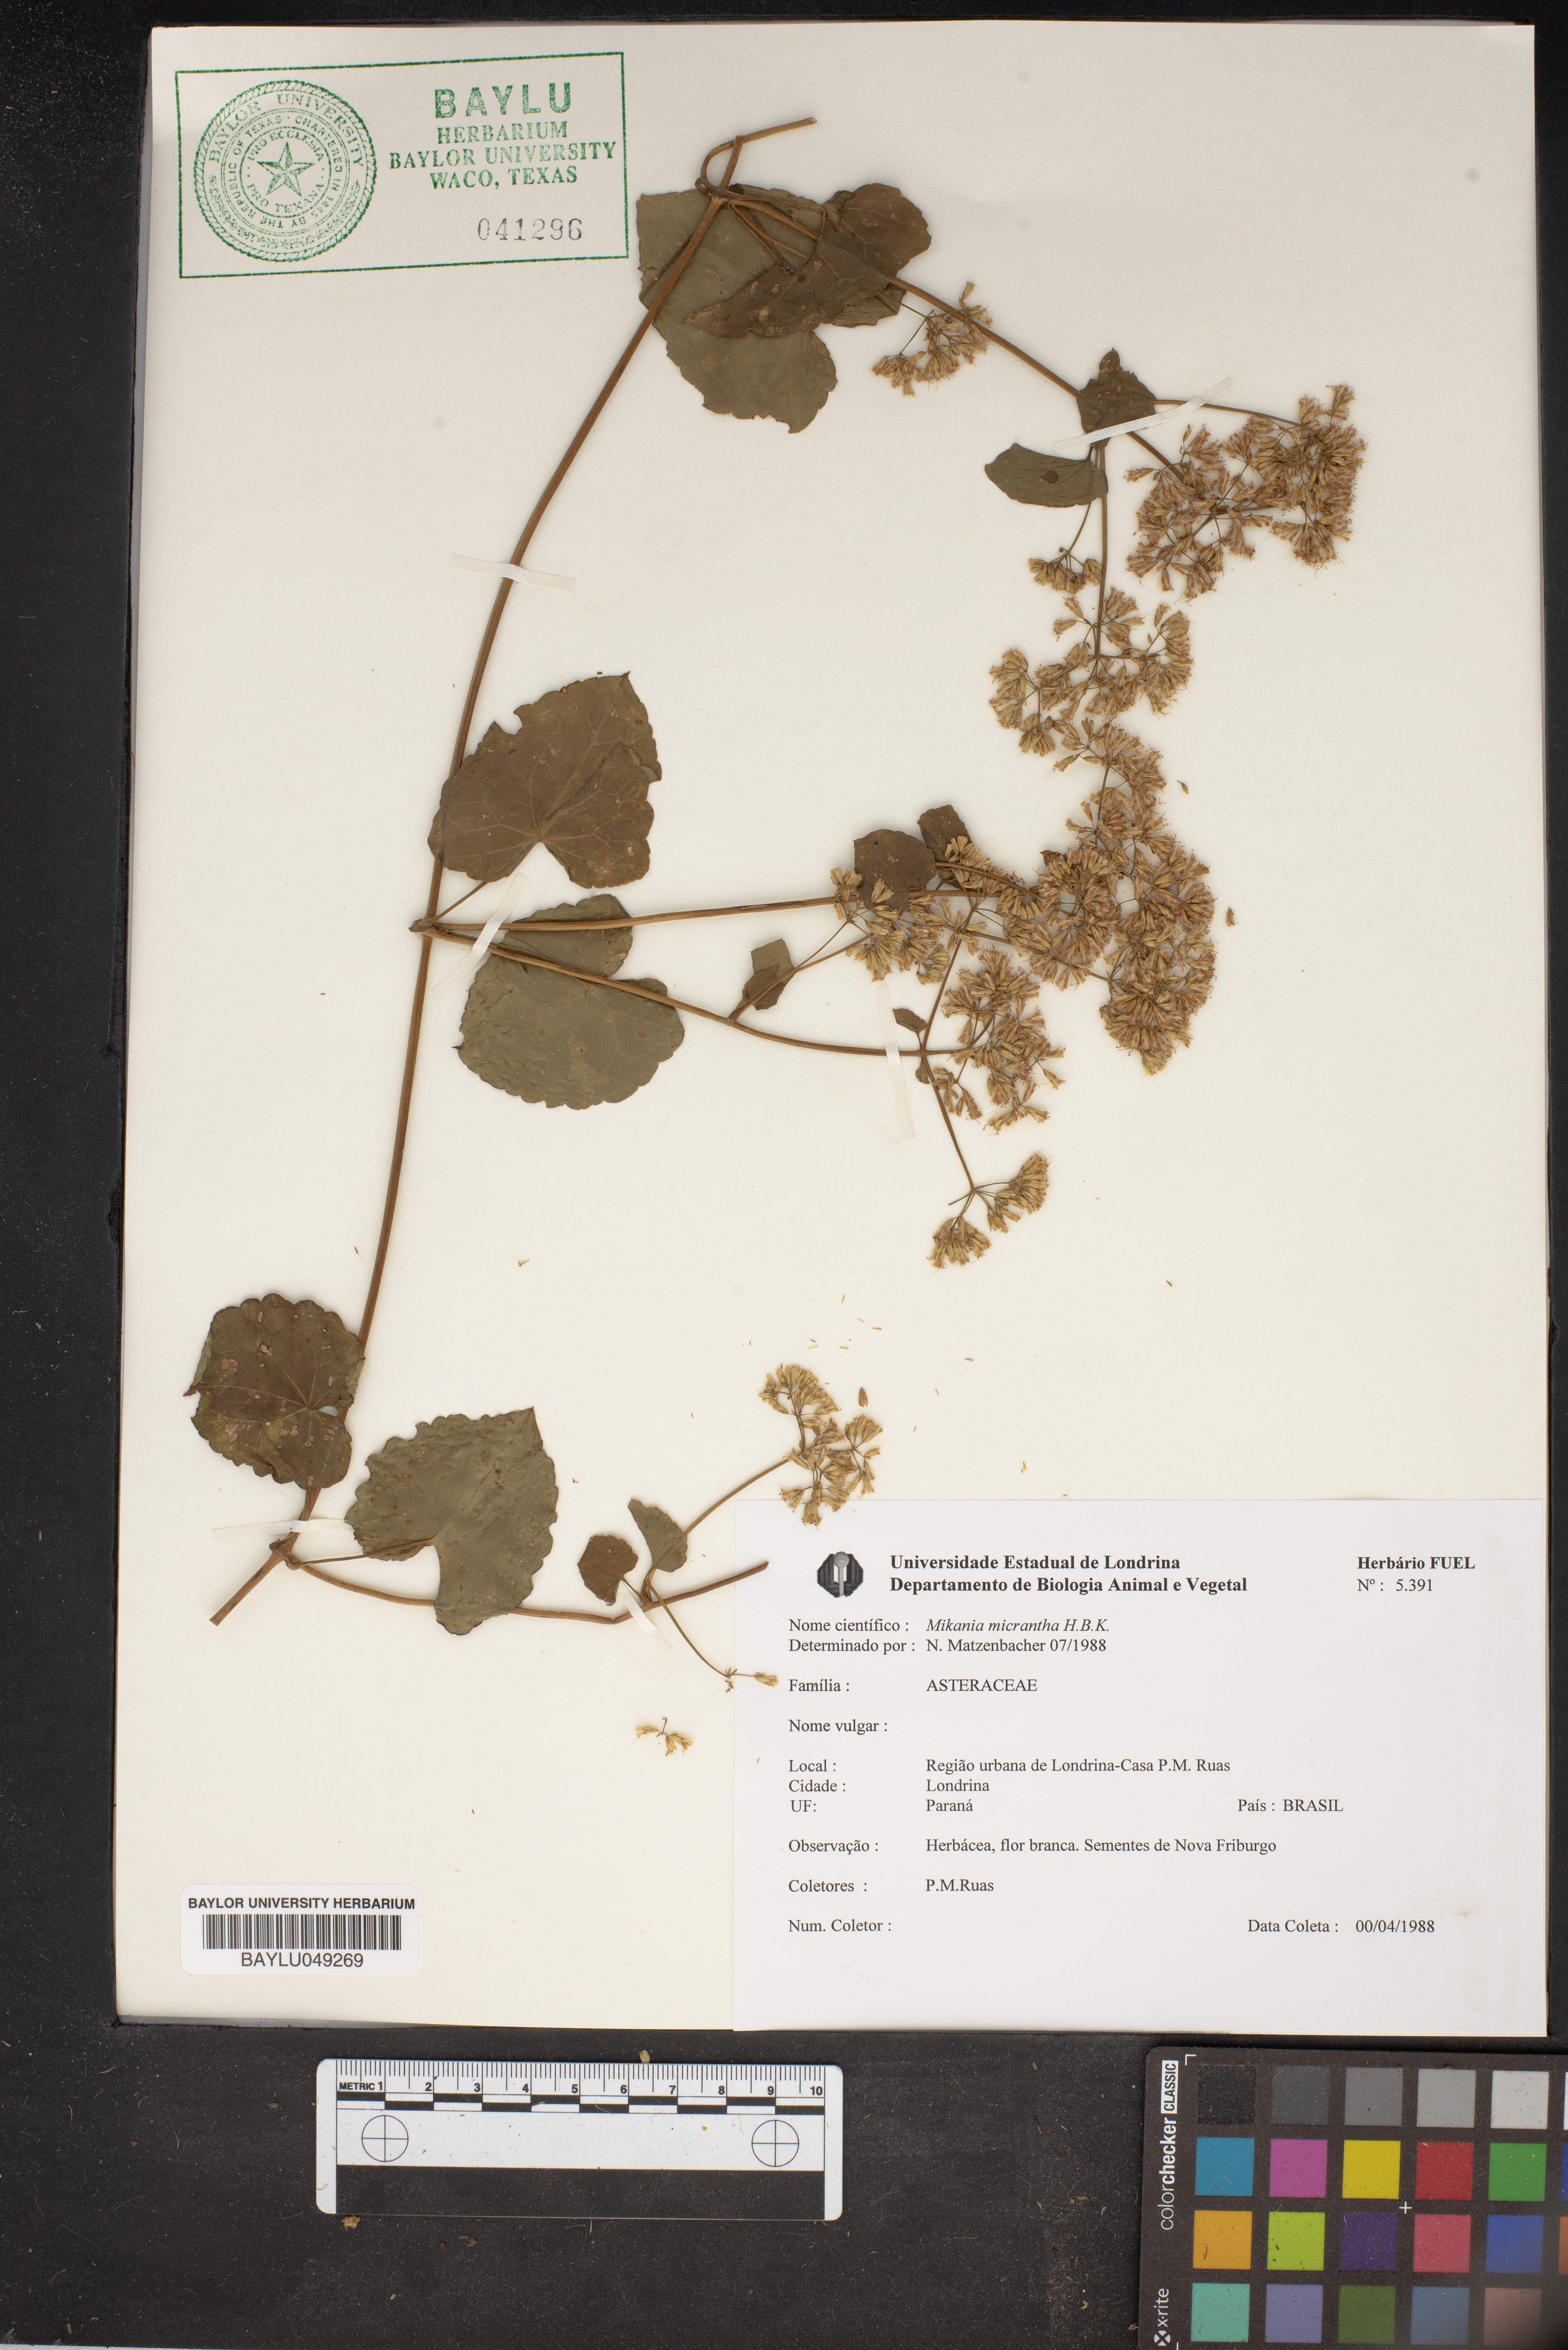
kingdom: Plantae
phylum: Tracheophyta
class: Magnoliopsida
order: Asterales
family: Asteraceae
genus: Mikania
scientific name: Mikania micrantha
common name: Mile-a-minute
